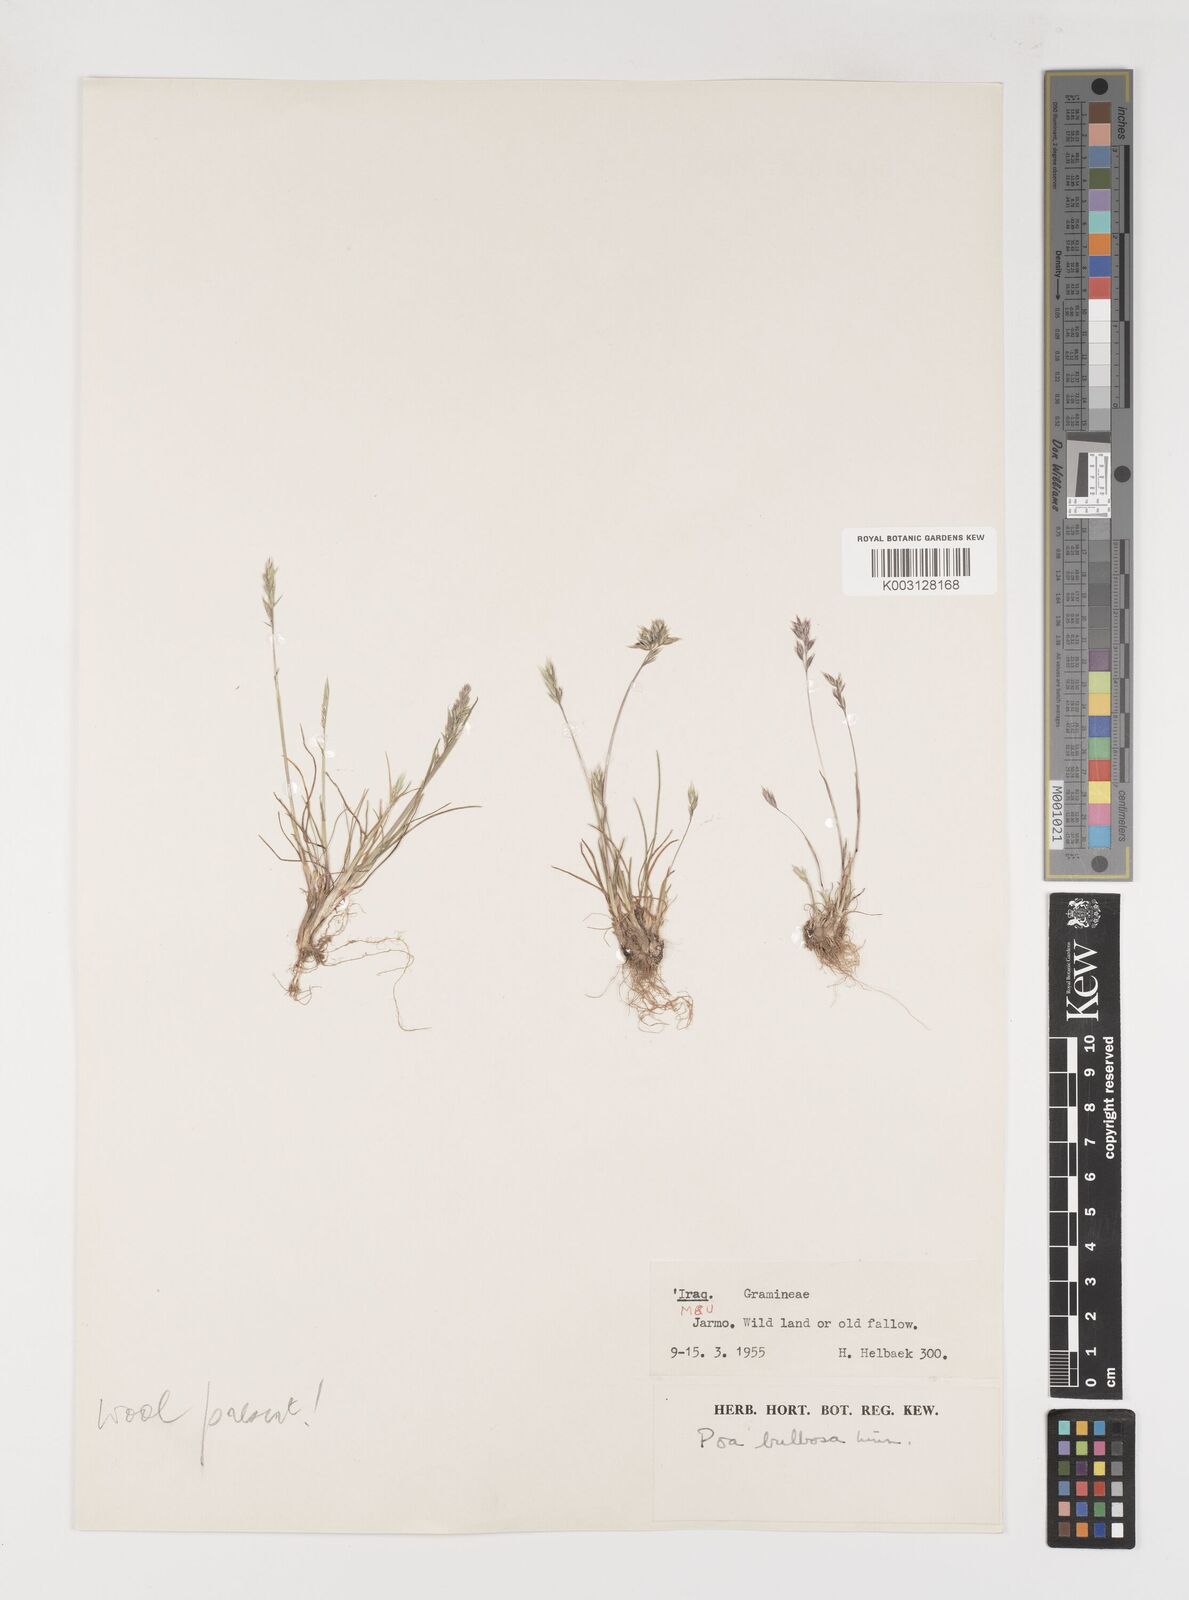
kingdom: Plantae
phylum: Tracheophyta
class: Liliopsida
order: Poales
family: Poaceae
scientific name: Poaceae
